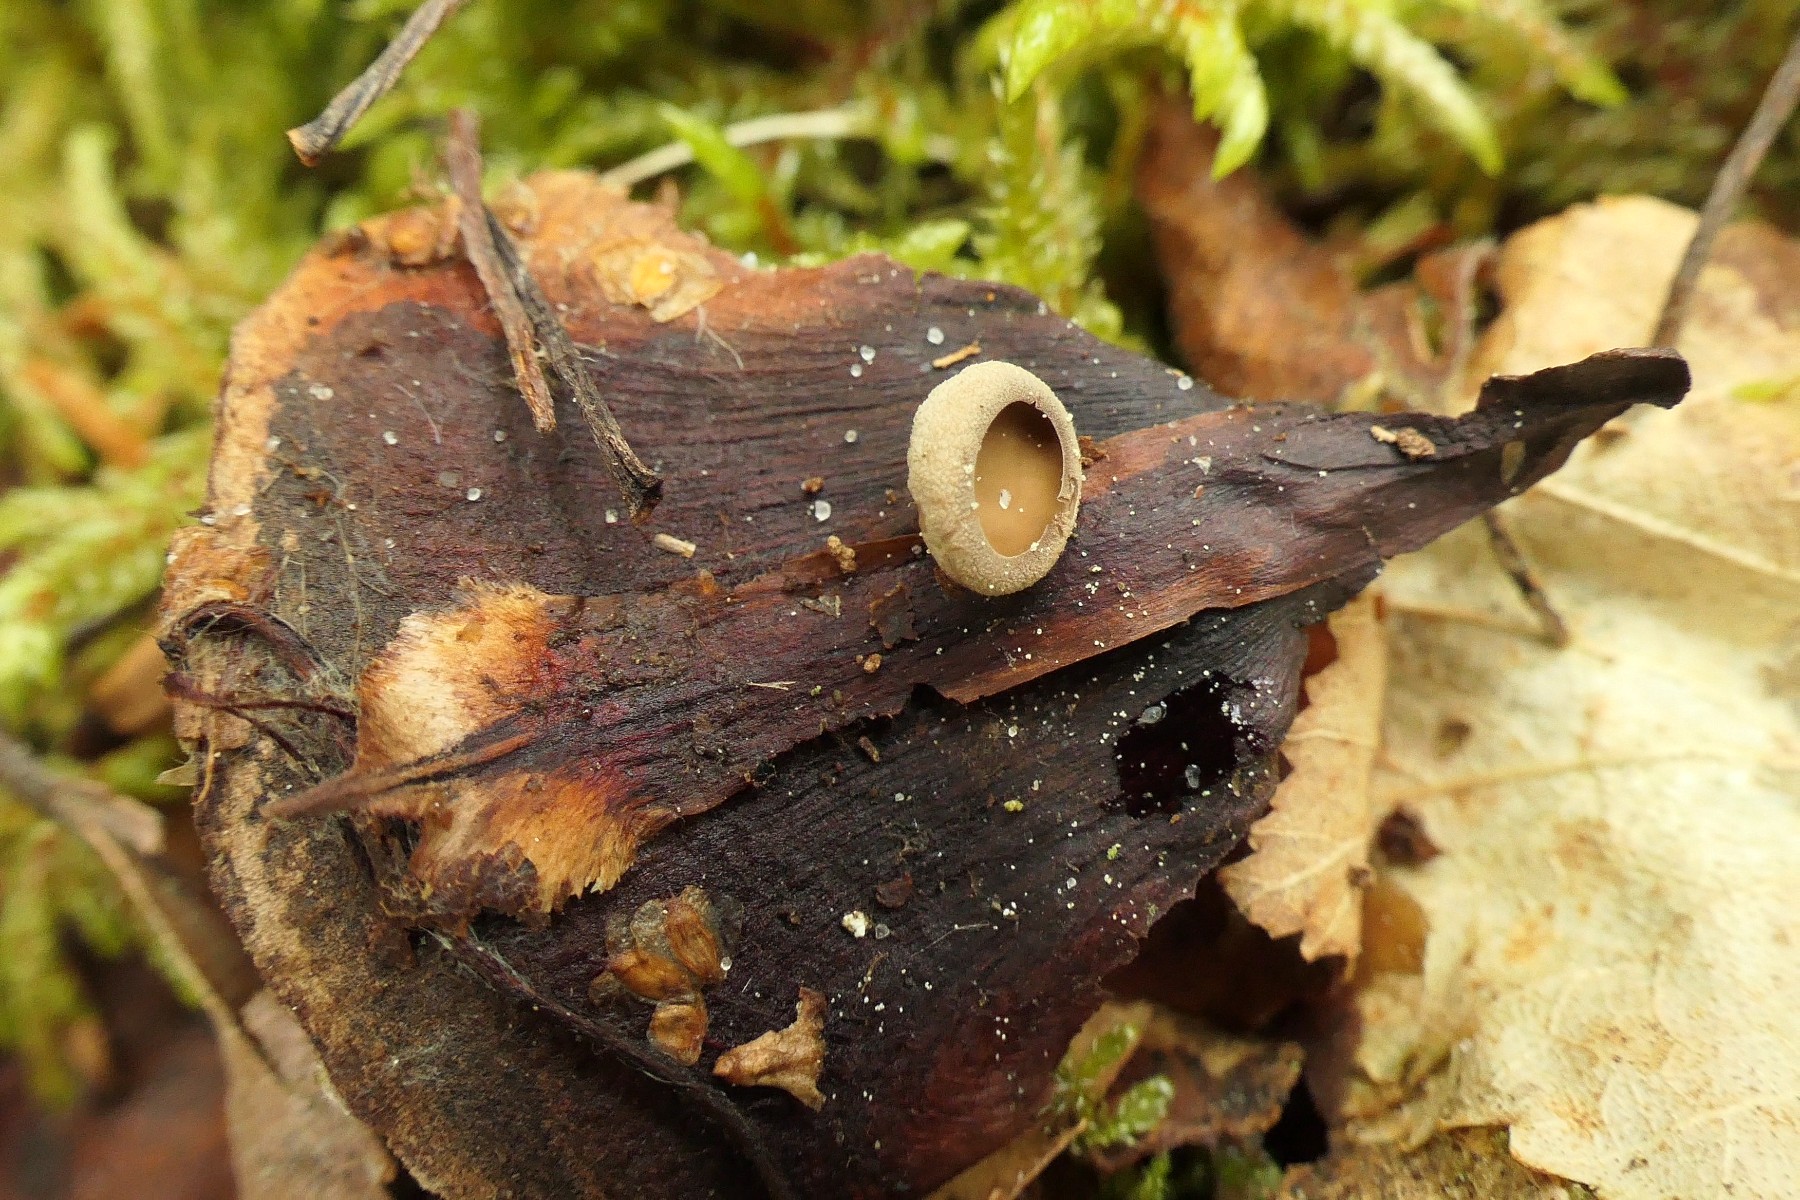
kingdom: Fungi
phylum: Ascomycota
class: Leotiomycetes
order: Helotiales
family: Sclerotiniaceae
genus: Ciboria
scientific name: Ciboria rufofusca
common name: kogleskæl-knoldskive
